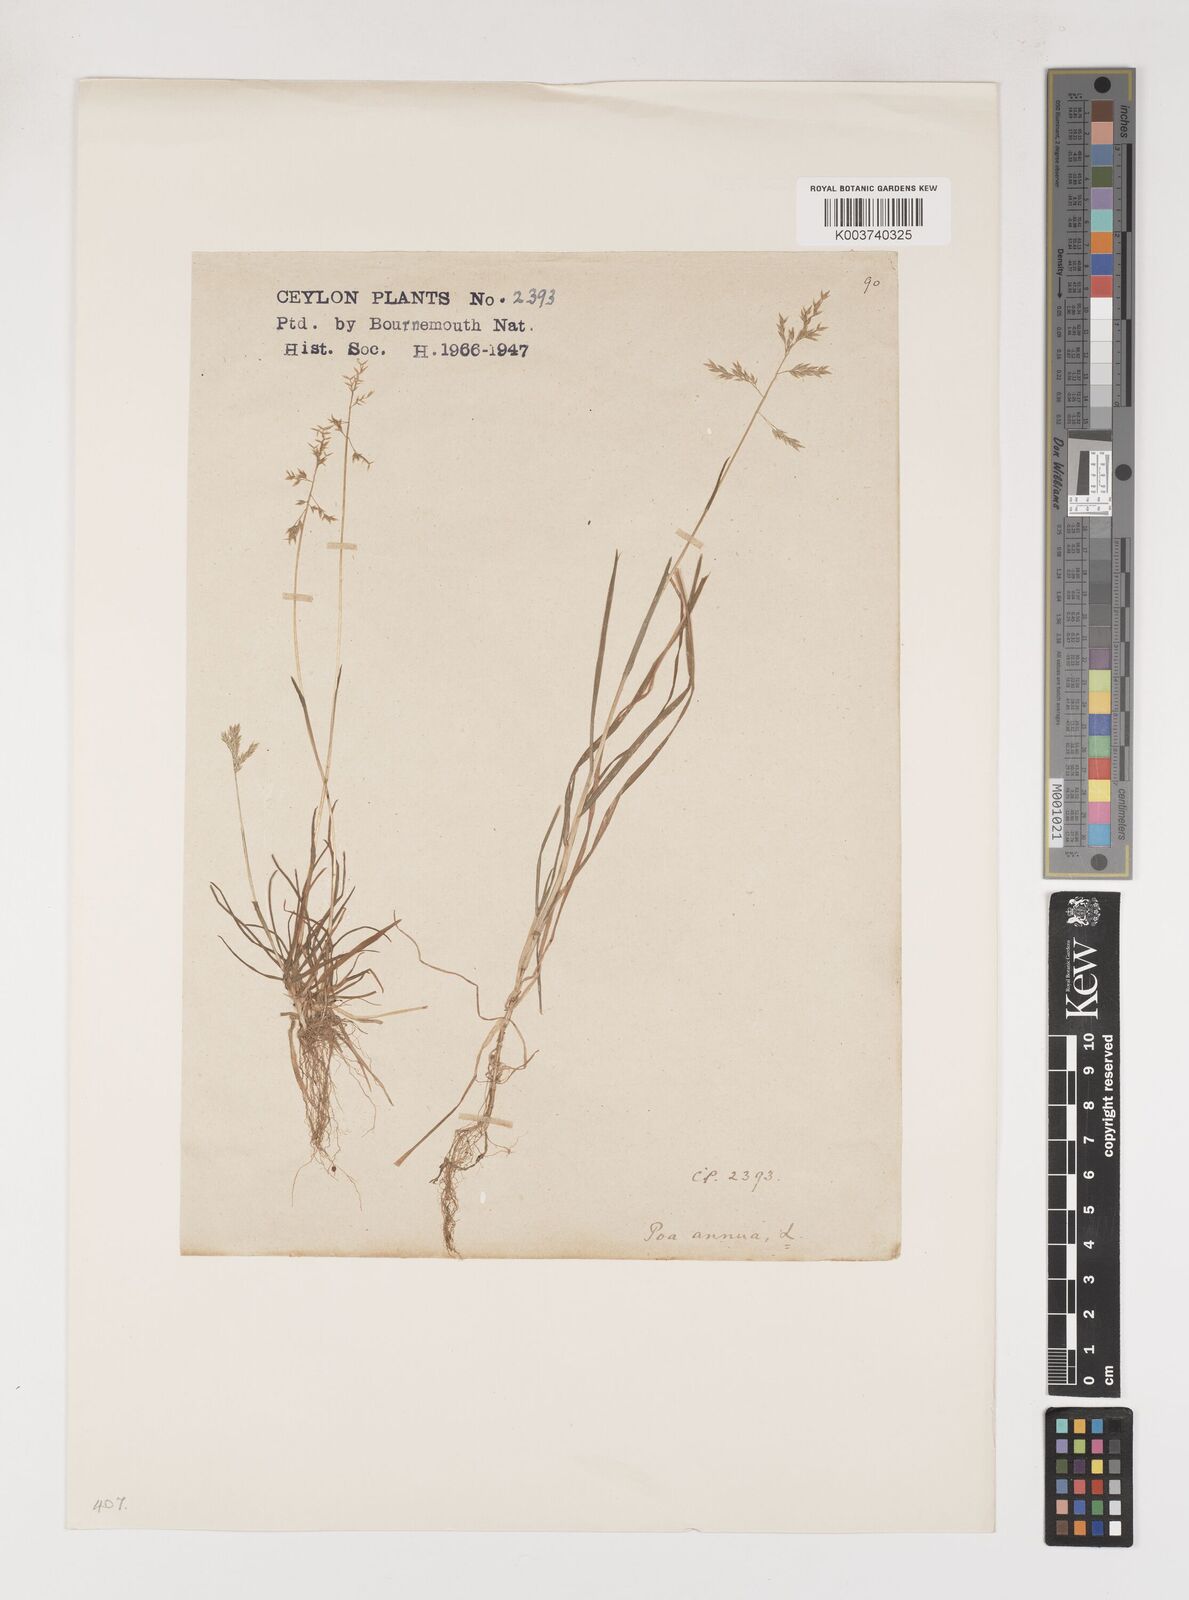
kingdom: Plantae
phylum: Tracheophyta
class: Liliopsida
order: Poales
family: Poaceae
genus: Poa
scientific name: Poa annua
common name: Annual bluegrass
